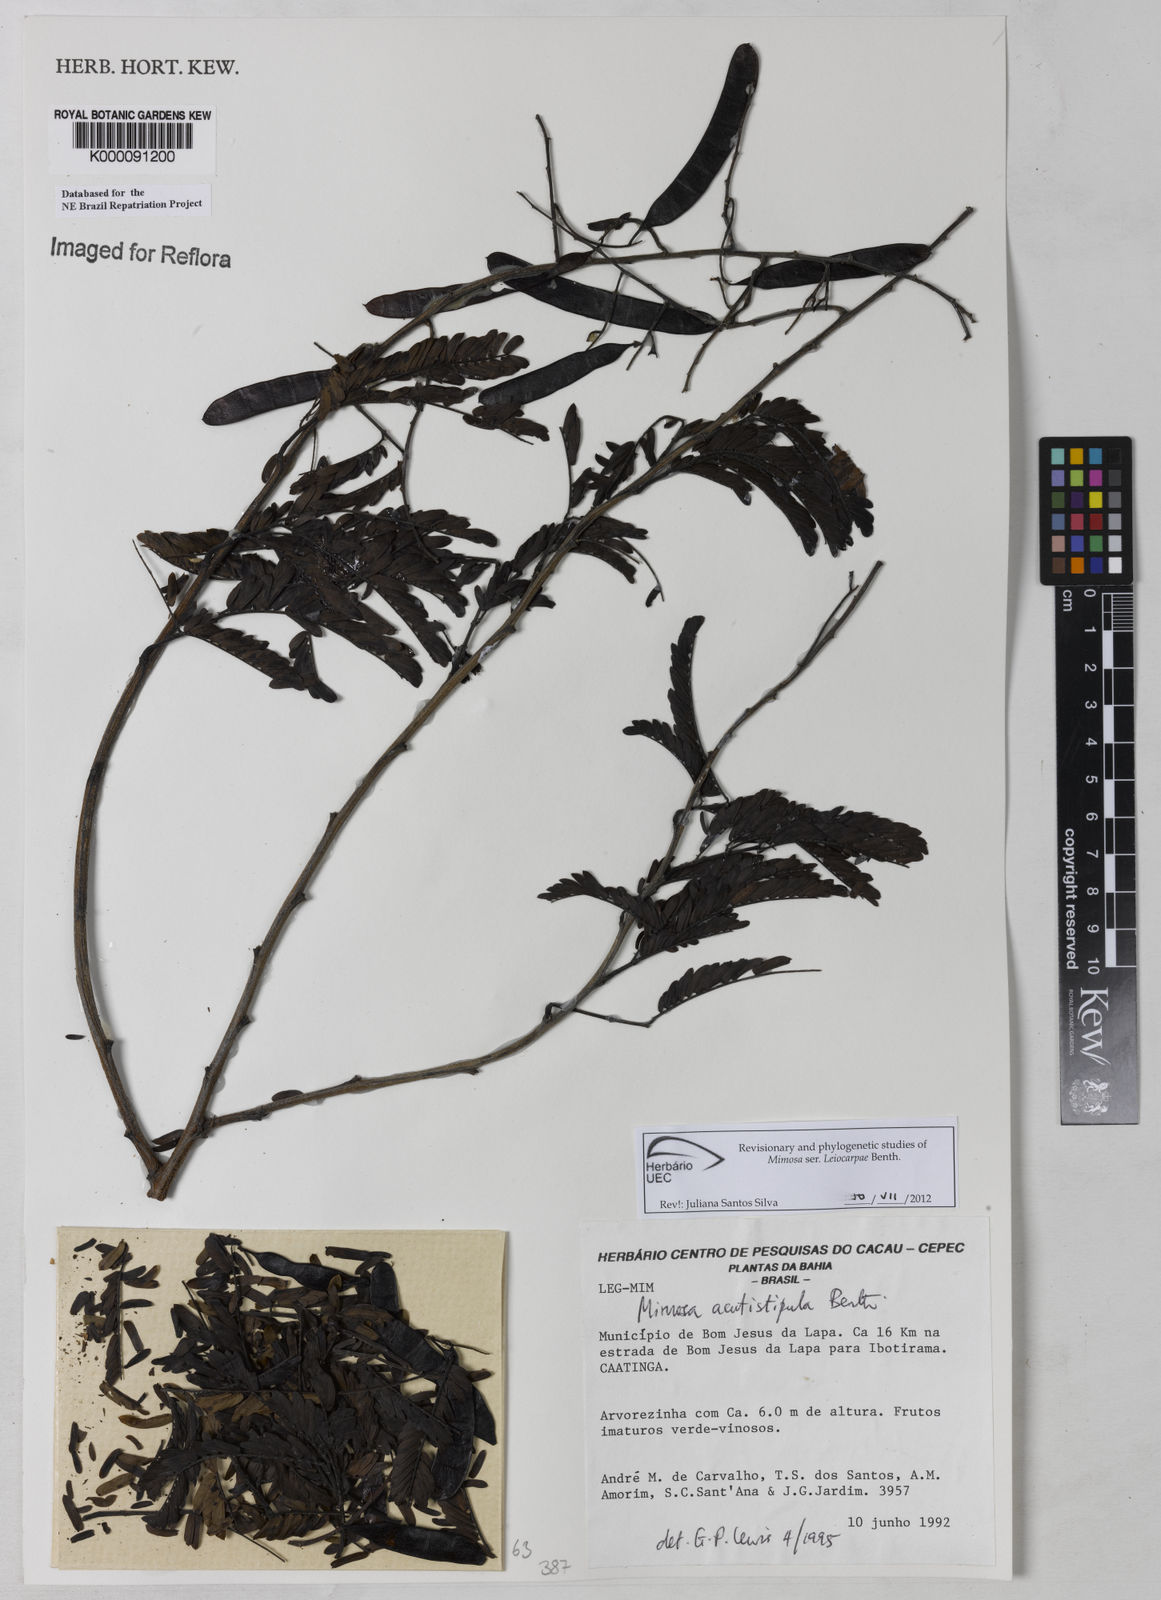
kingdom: Plantae
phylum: Tracheophyta
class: Magnoliopsida
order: Fabales
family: Fabaceae
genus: Mimosa
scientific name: Mimosa acutistipula
